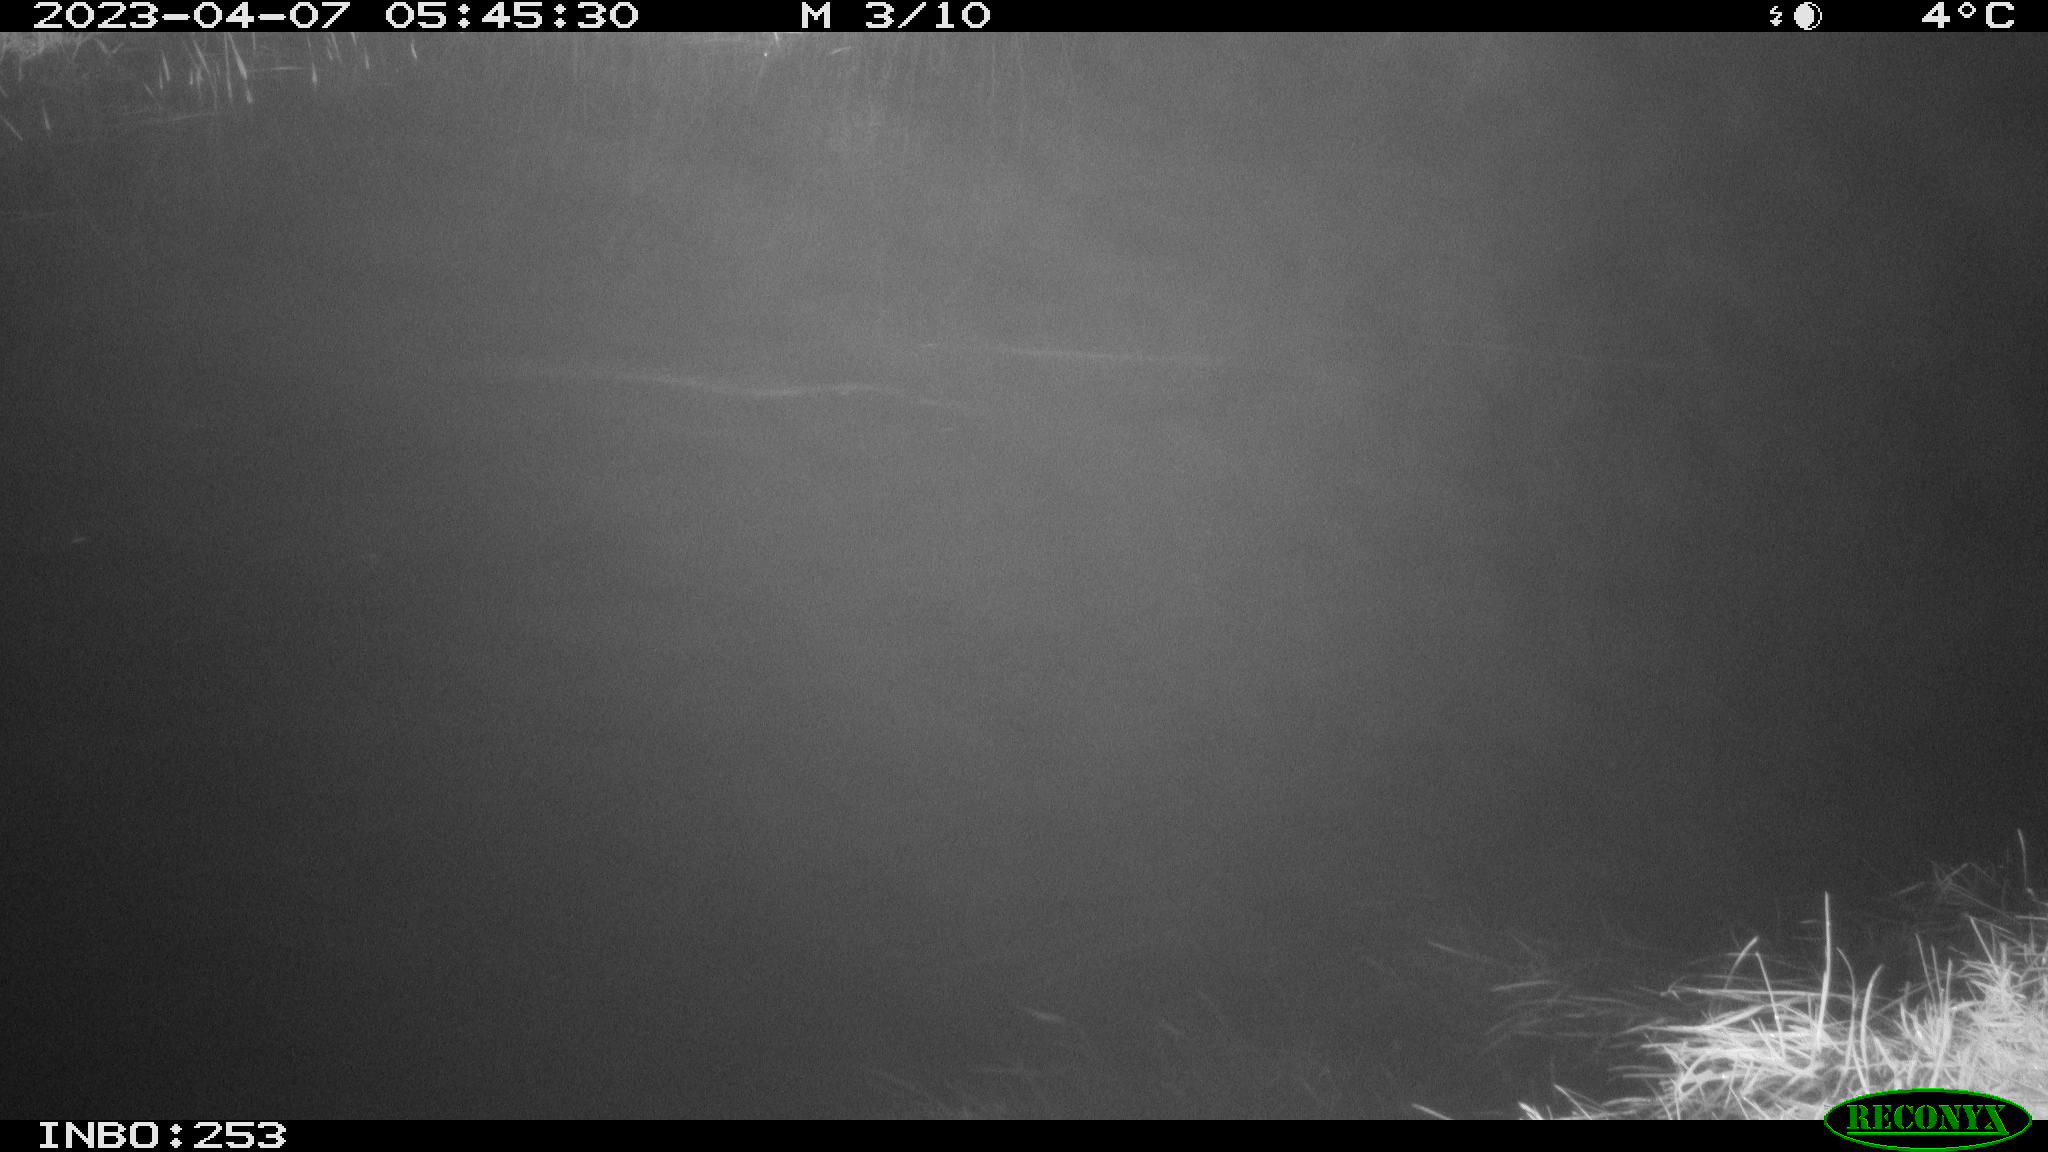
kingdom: Animalia
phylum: Chordata
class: Aves
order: Anseriformes
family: Anatidae
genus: Anas
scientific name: Anas
